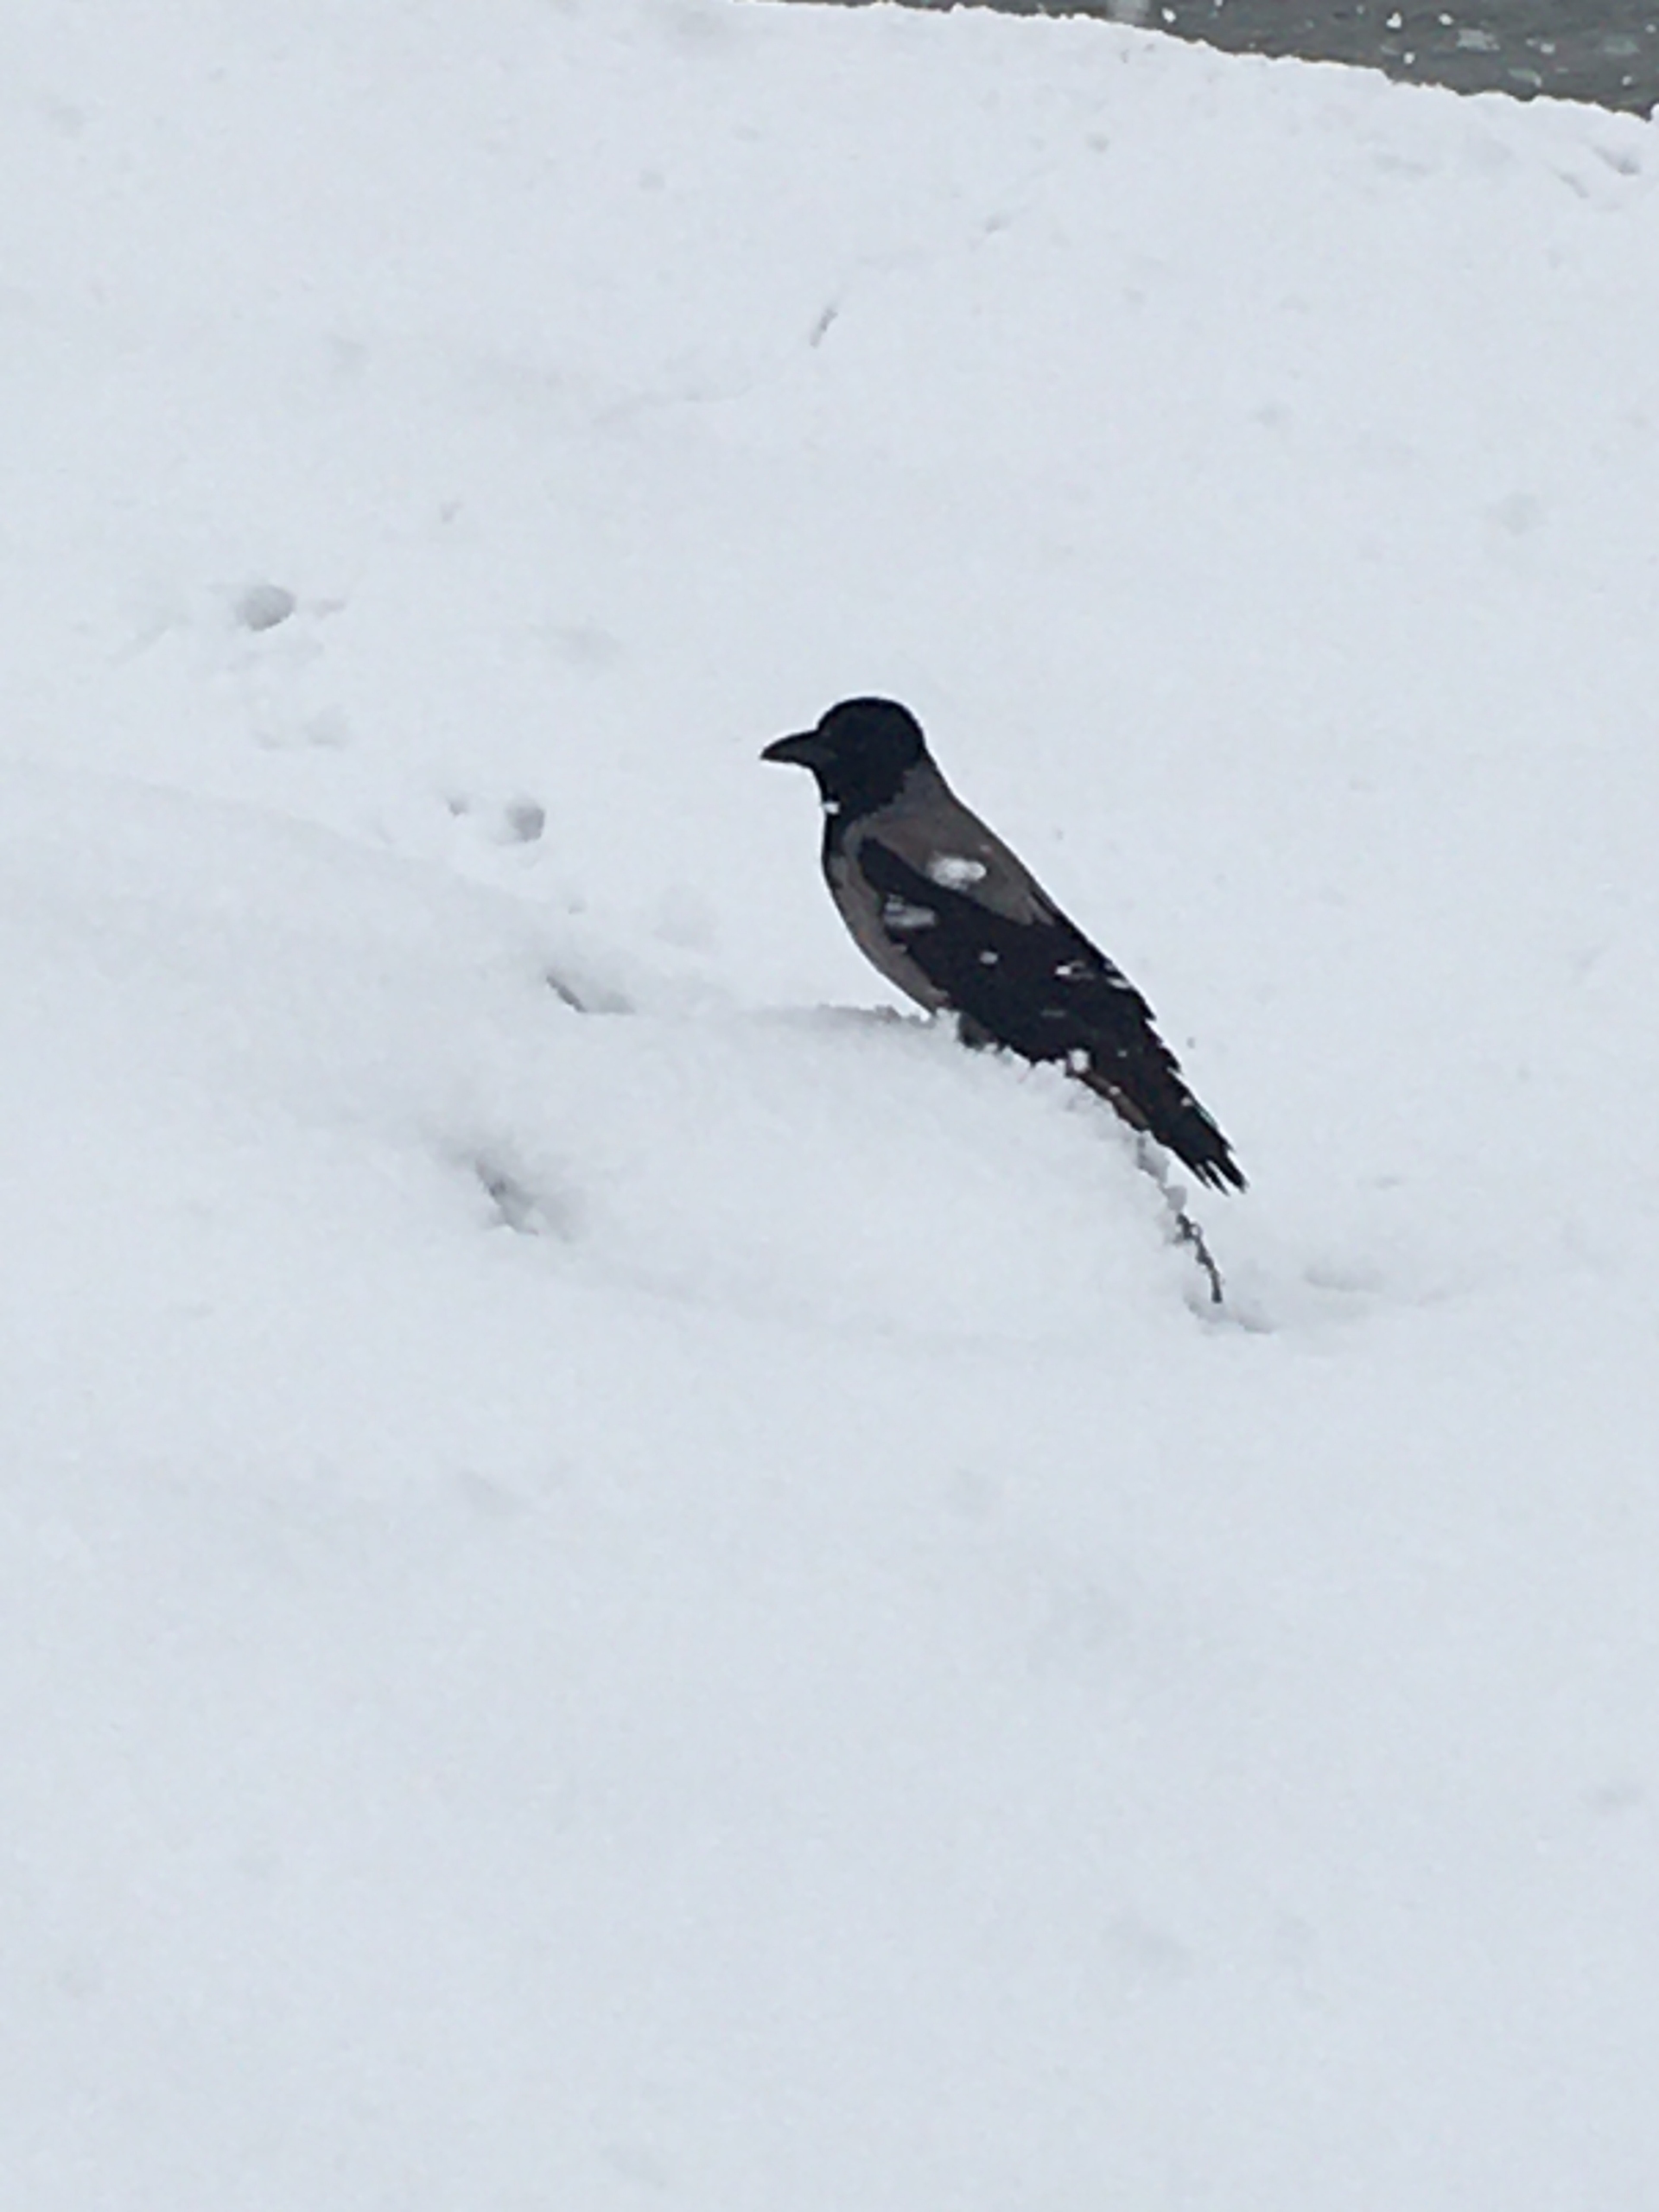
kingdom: Animalia
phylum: Chordata
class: Aves
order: Passeriformes
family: Corvidae
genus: Corvus
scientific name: Corvus cornix
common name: Gråkrage
